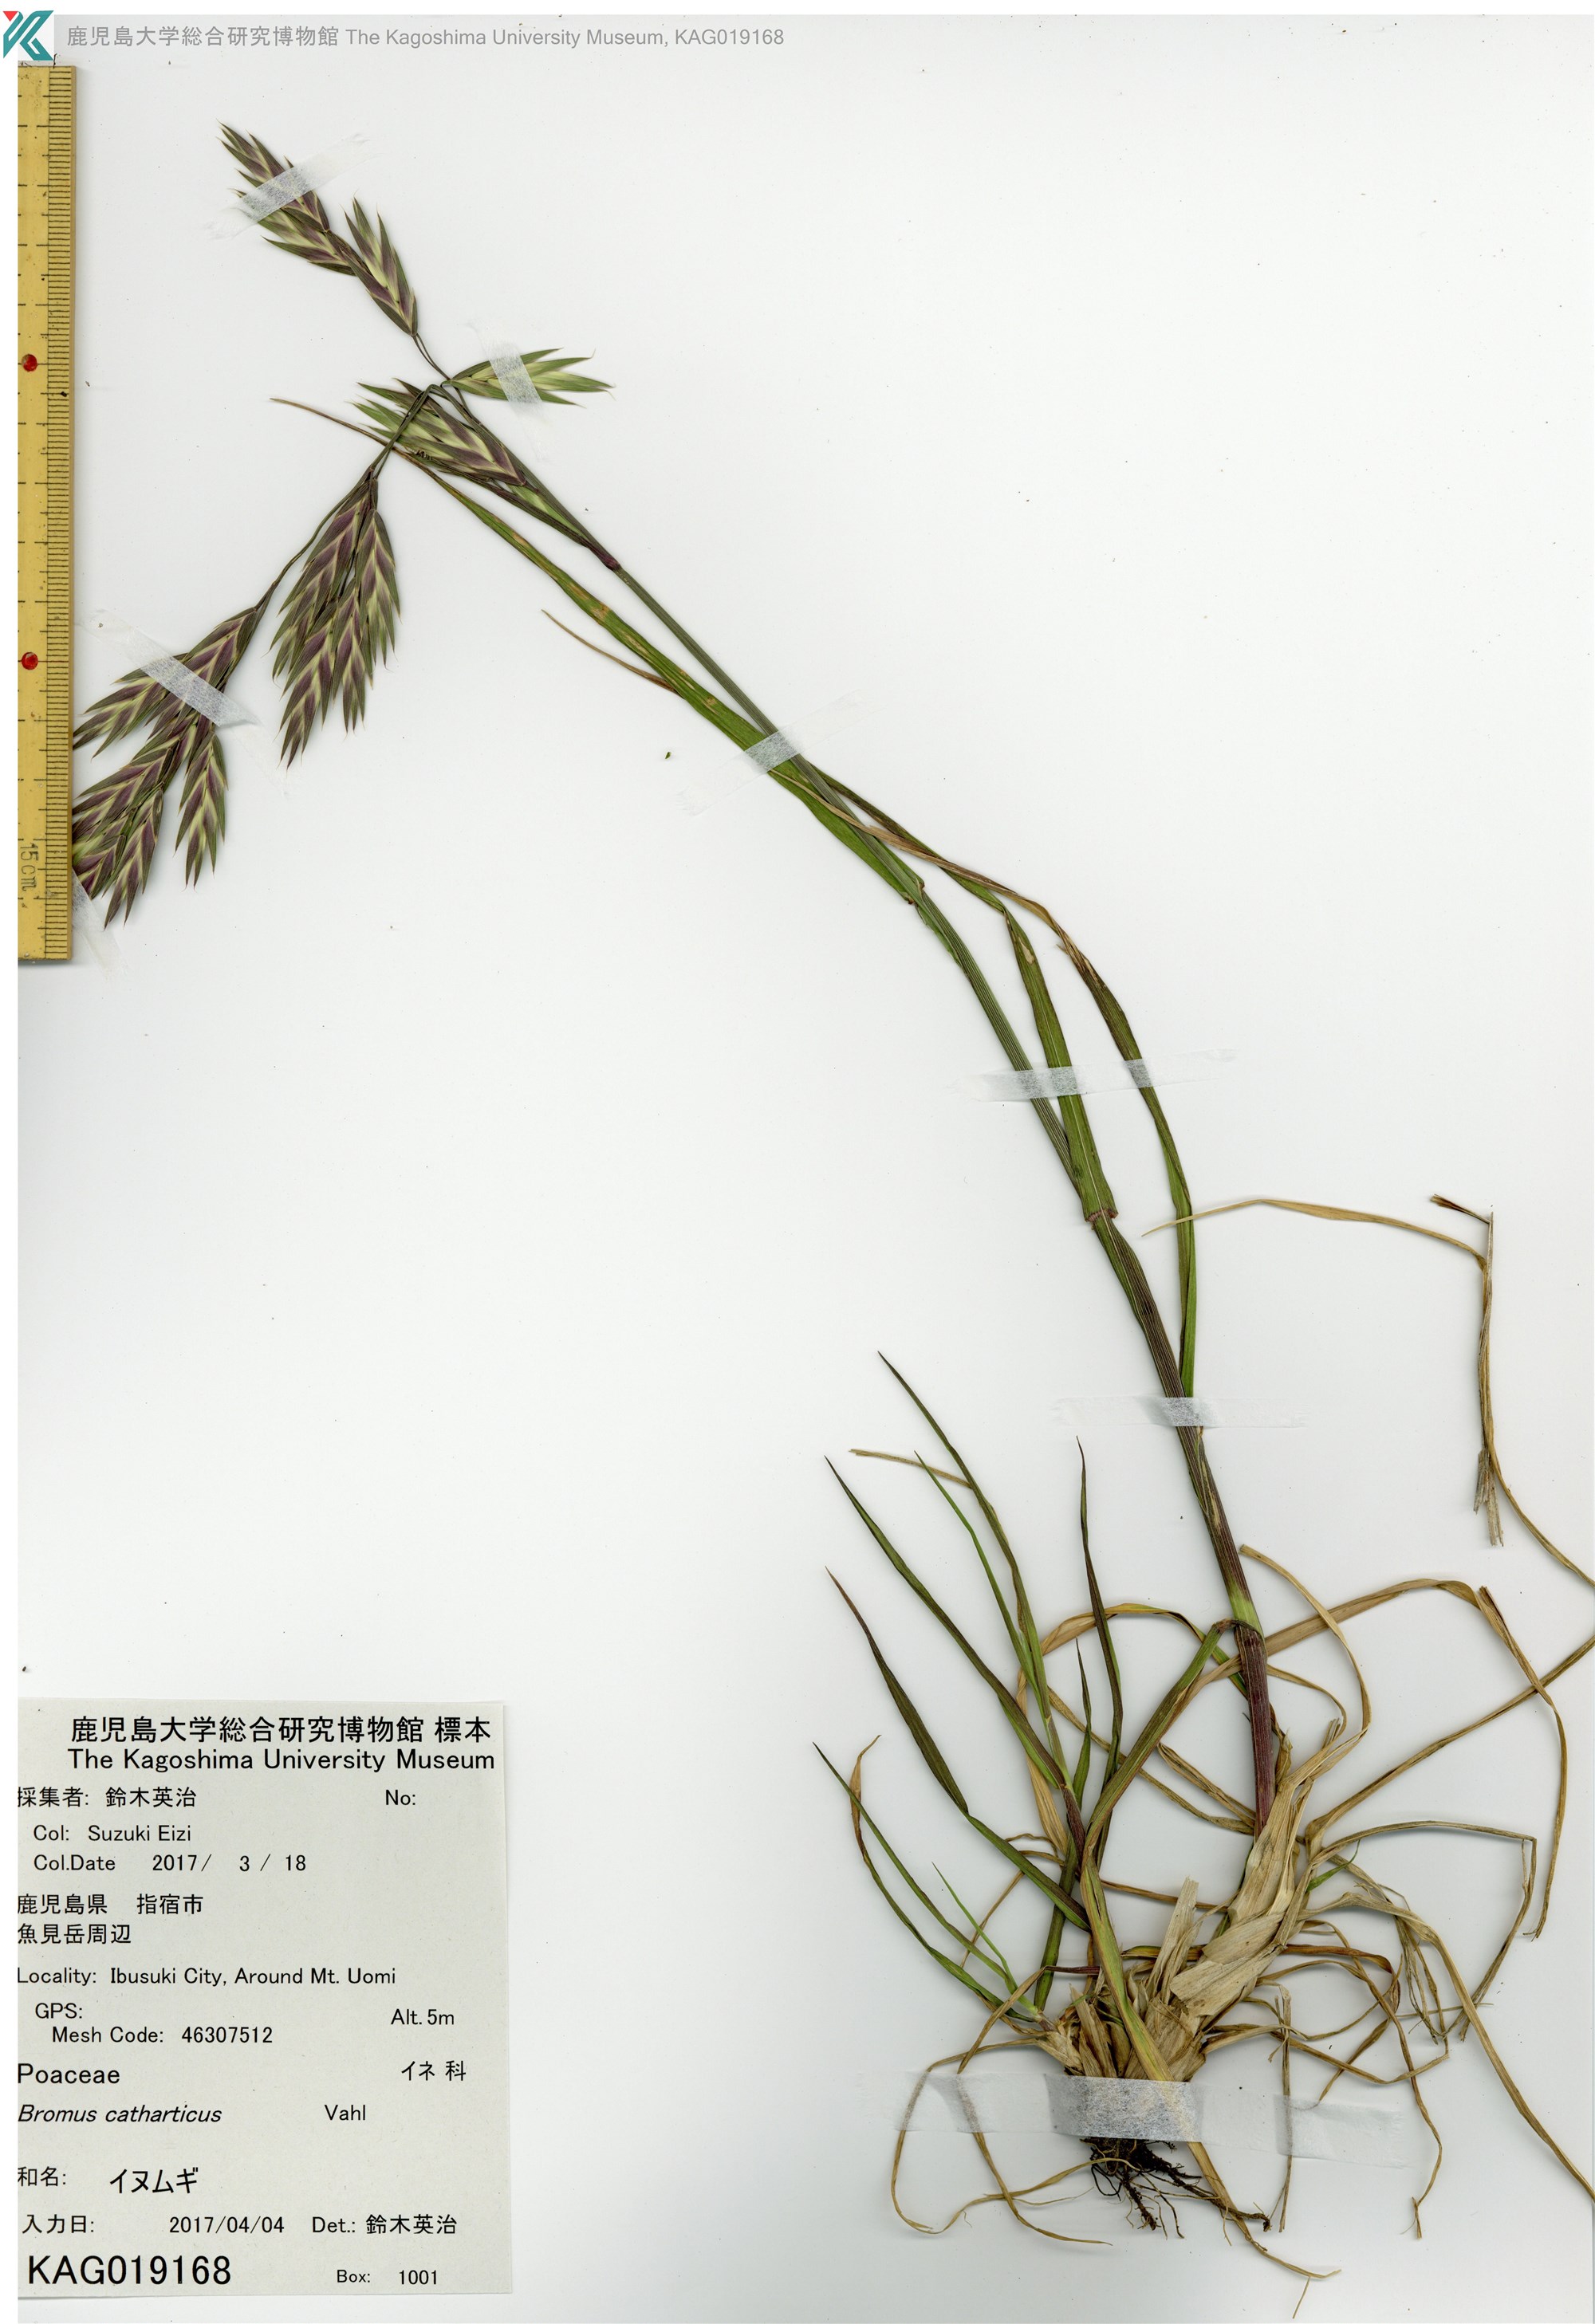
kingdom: Plantae
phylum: Tracheophyta
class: Liliopsida
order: Poales
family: Poaceae
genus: Bromus
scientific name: Bromus catharticus
